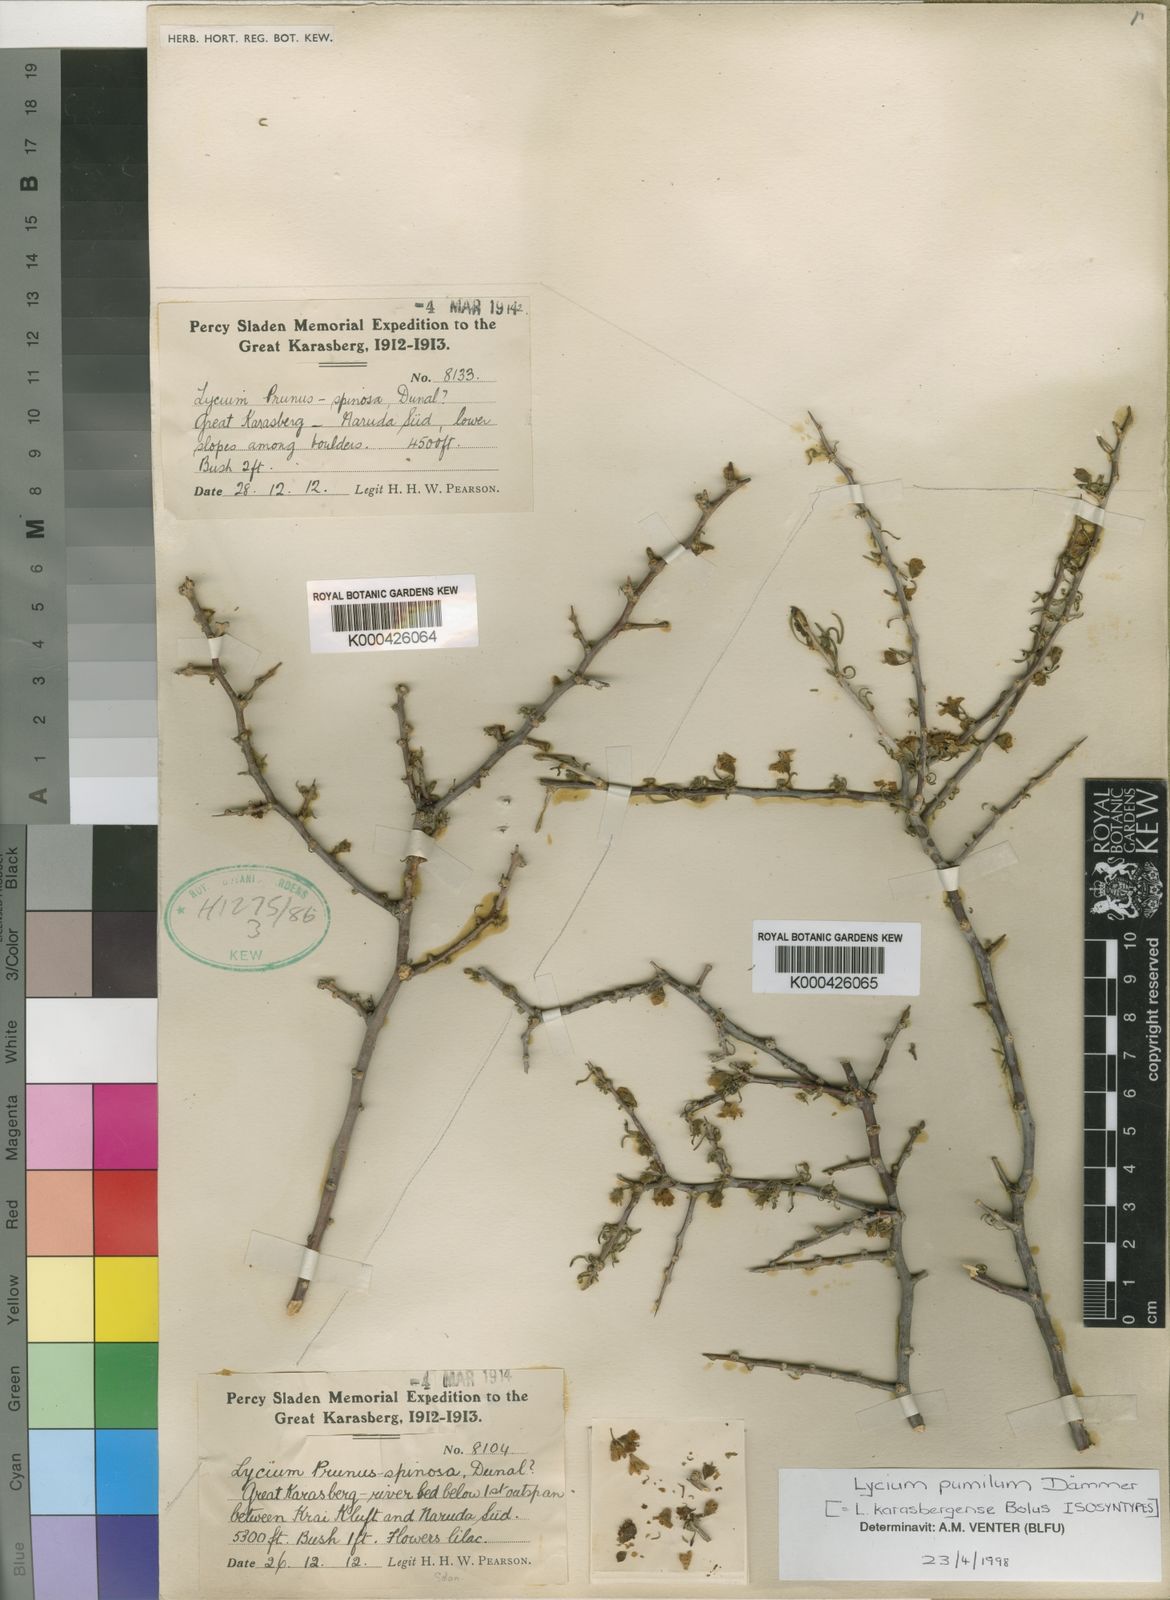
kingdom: Plantae
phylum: Tracheophyta
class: Magnoliopsida
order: Solanales
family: Solanaceae
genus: Lycium
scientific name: Lycium cinereum
